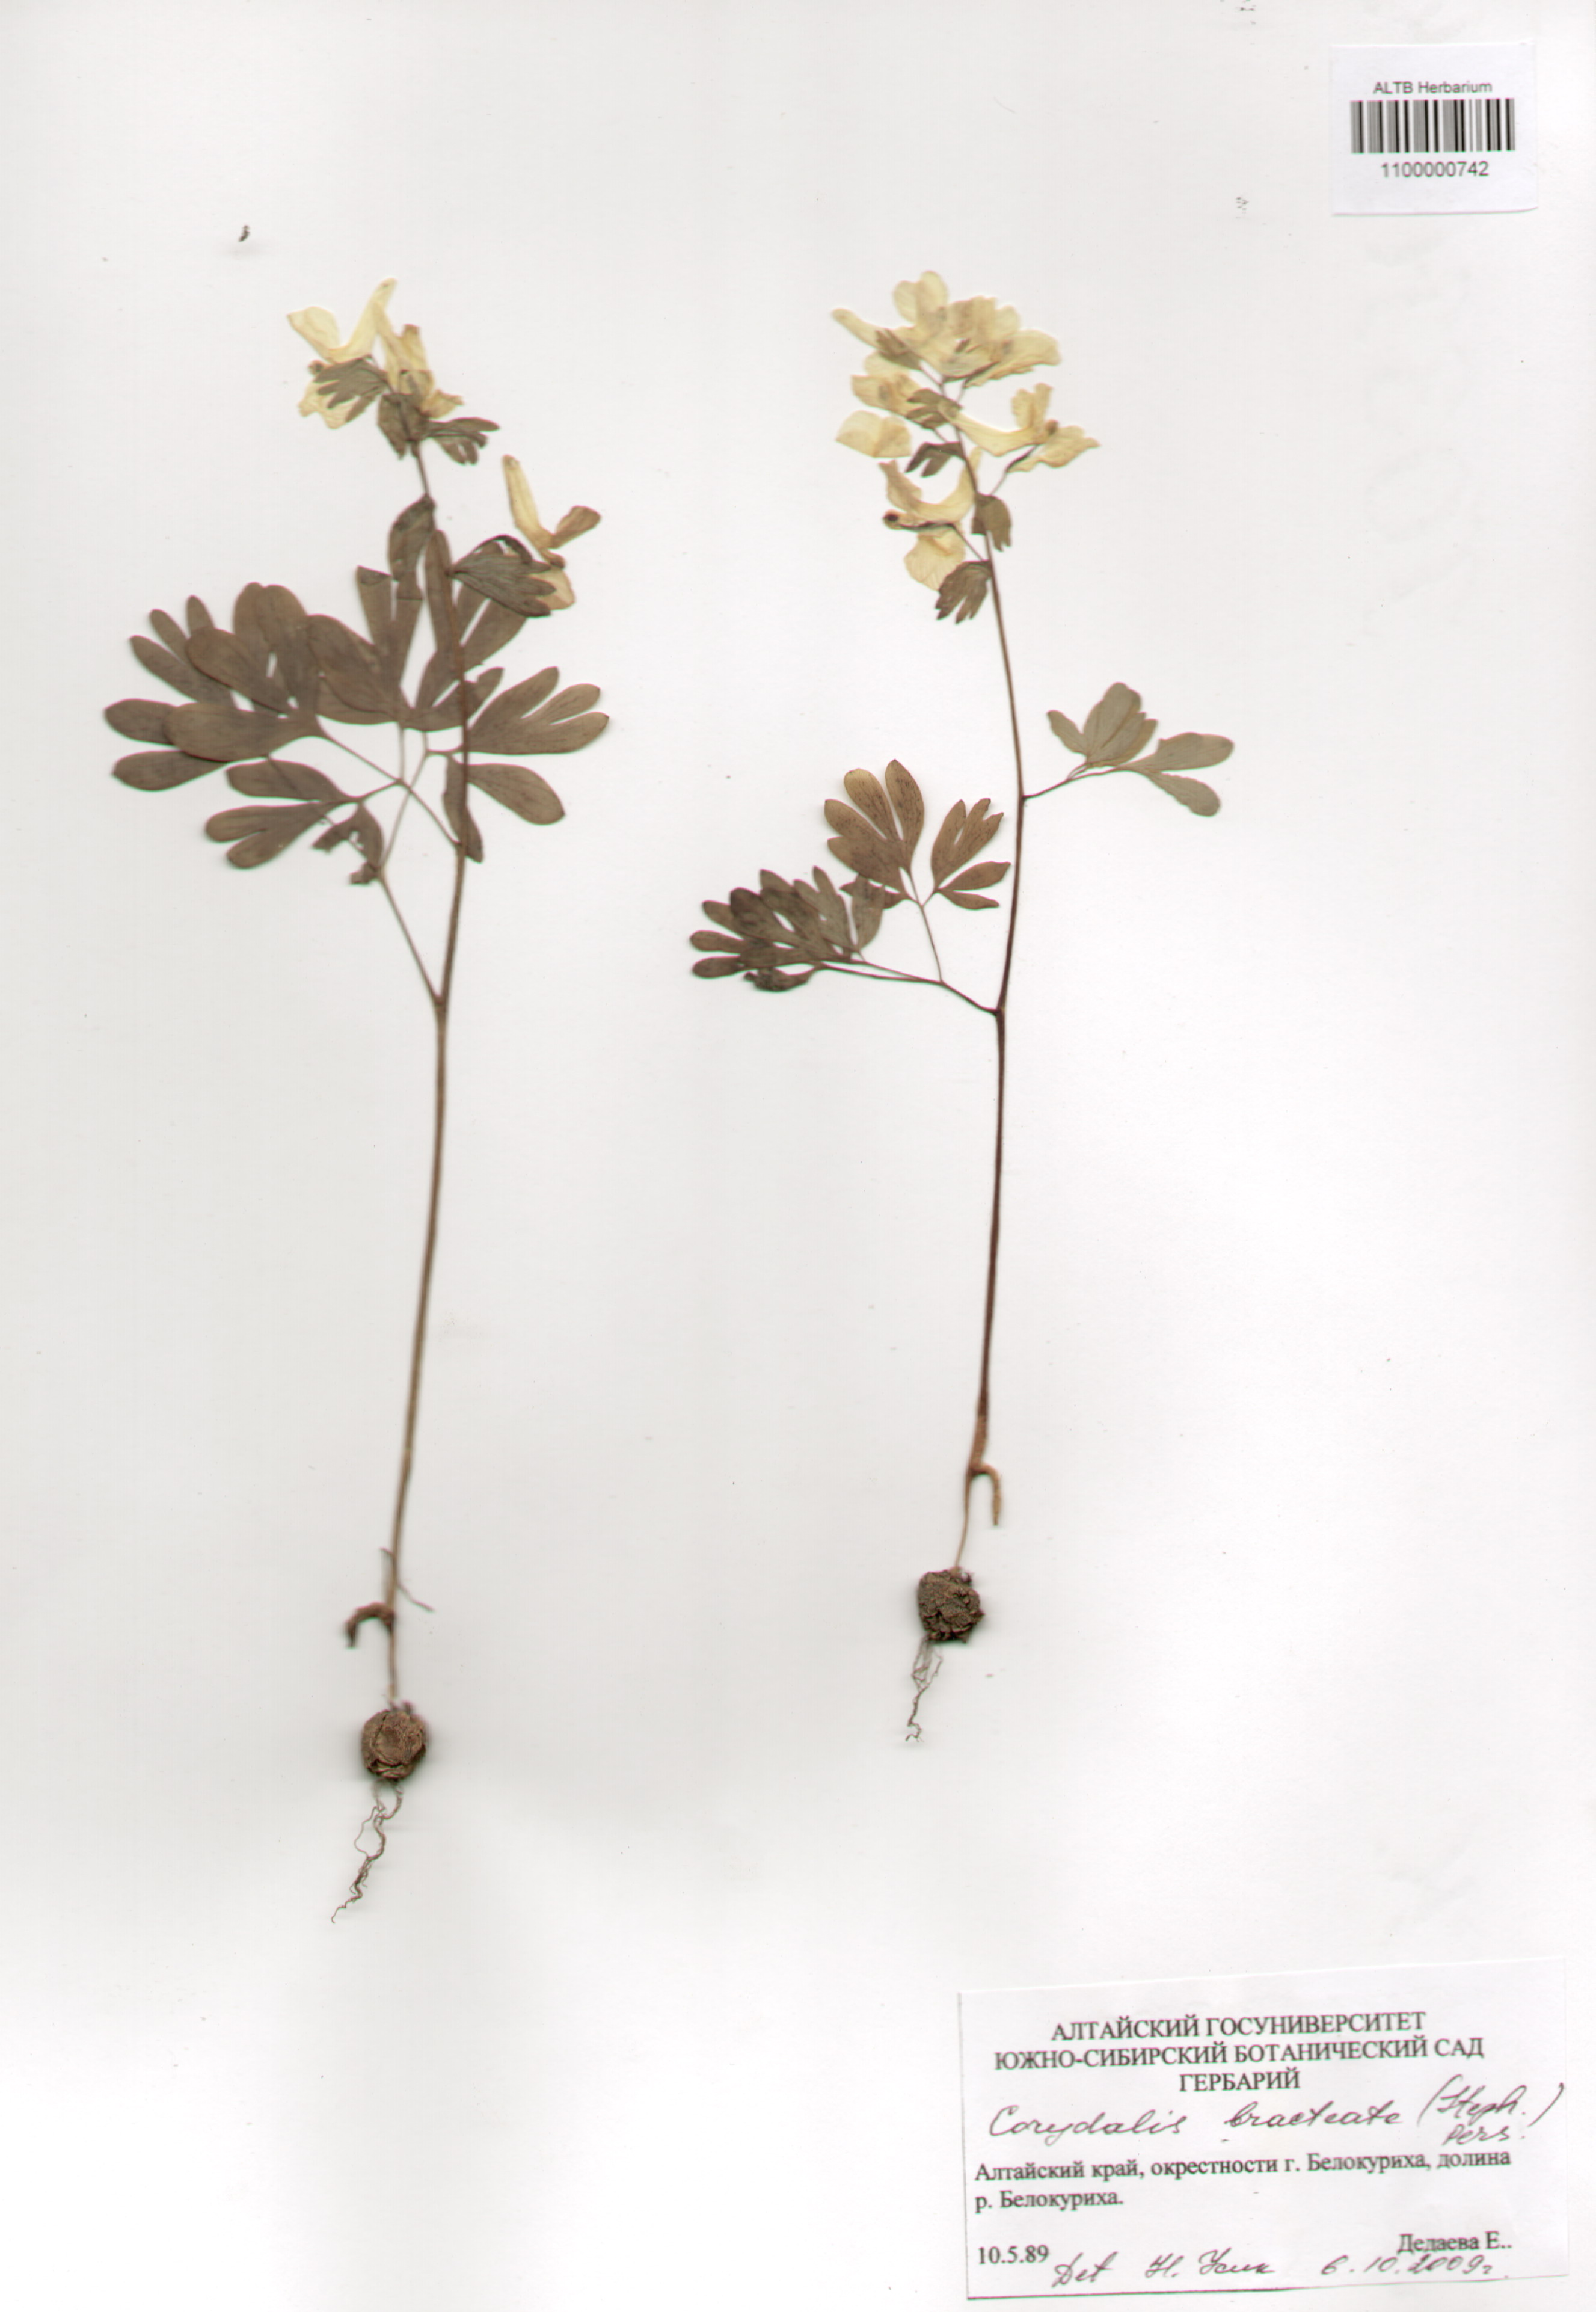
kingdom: Plantae
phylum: Tracheophyta
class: Magnoliopsida
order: Ranunculales
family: Papaveraceae
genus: Corydalis
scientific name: Corydalis bracteata
